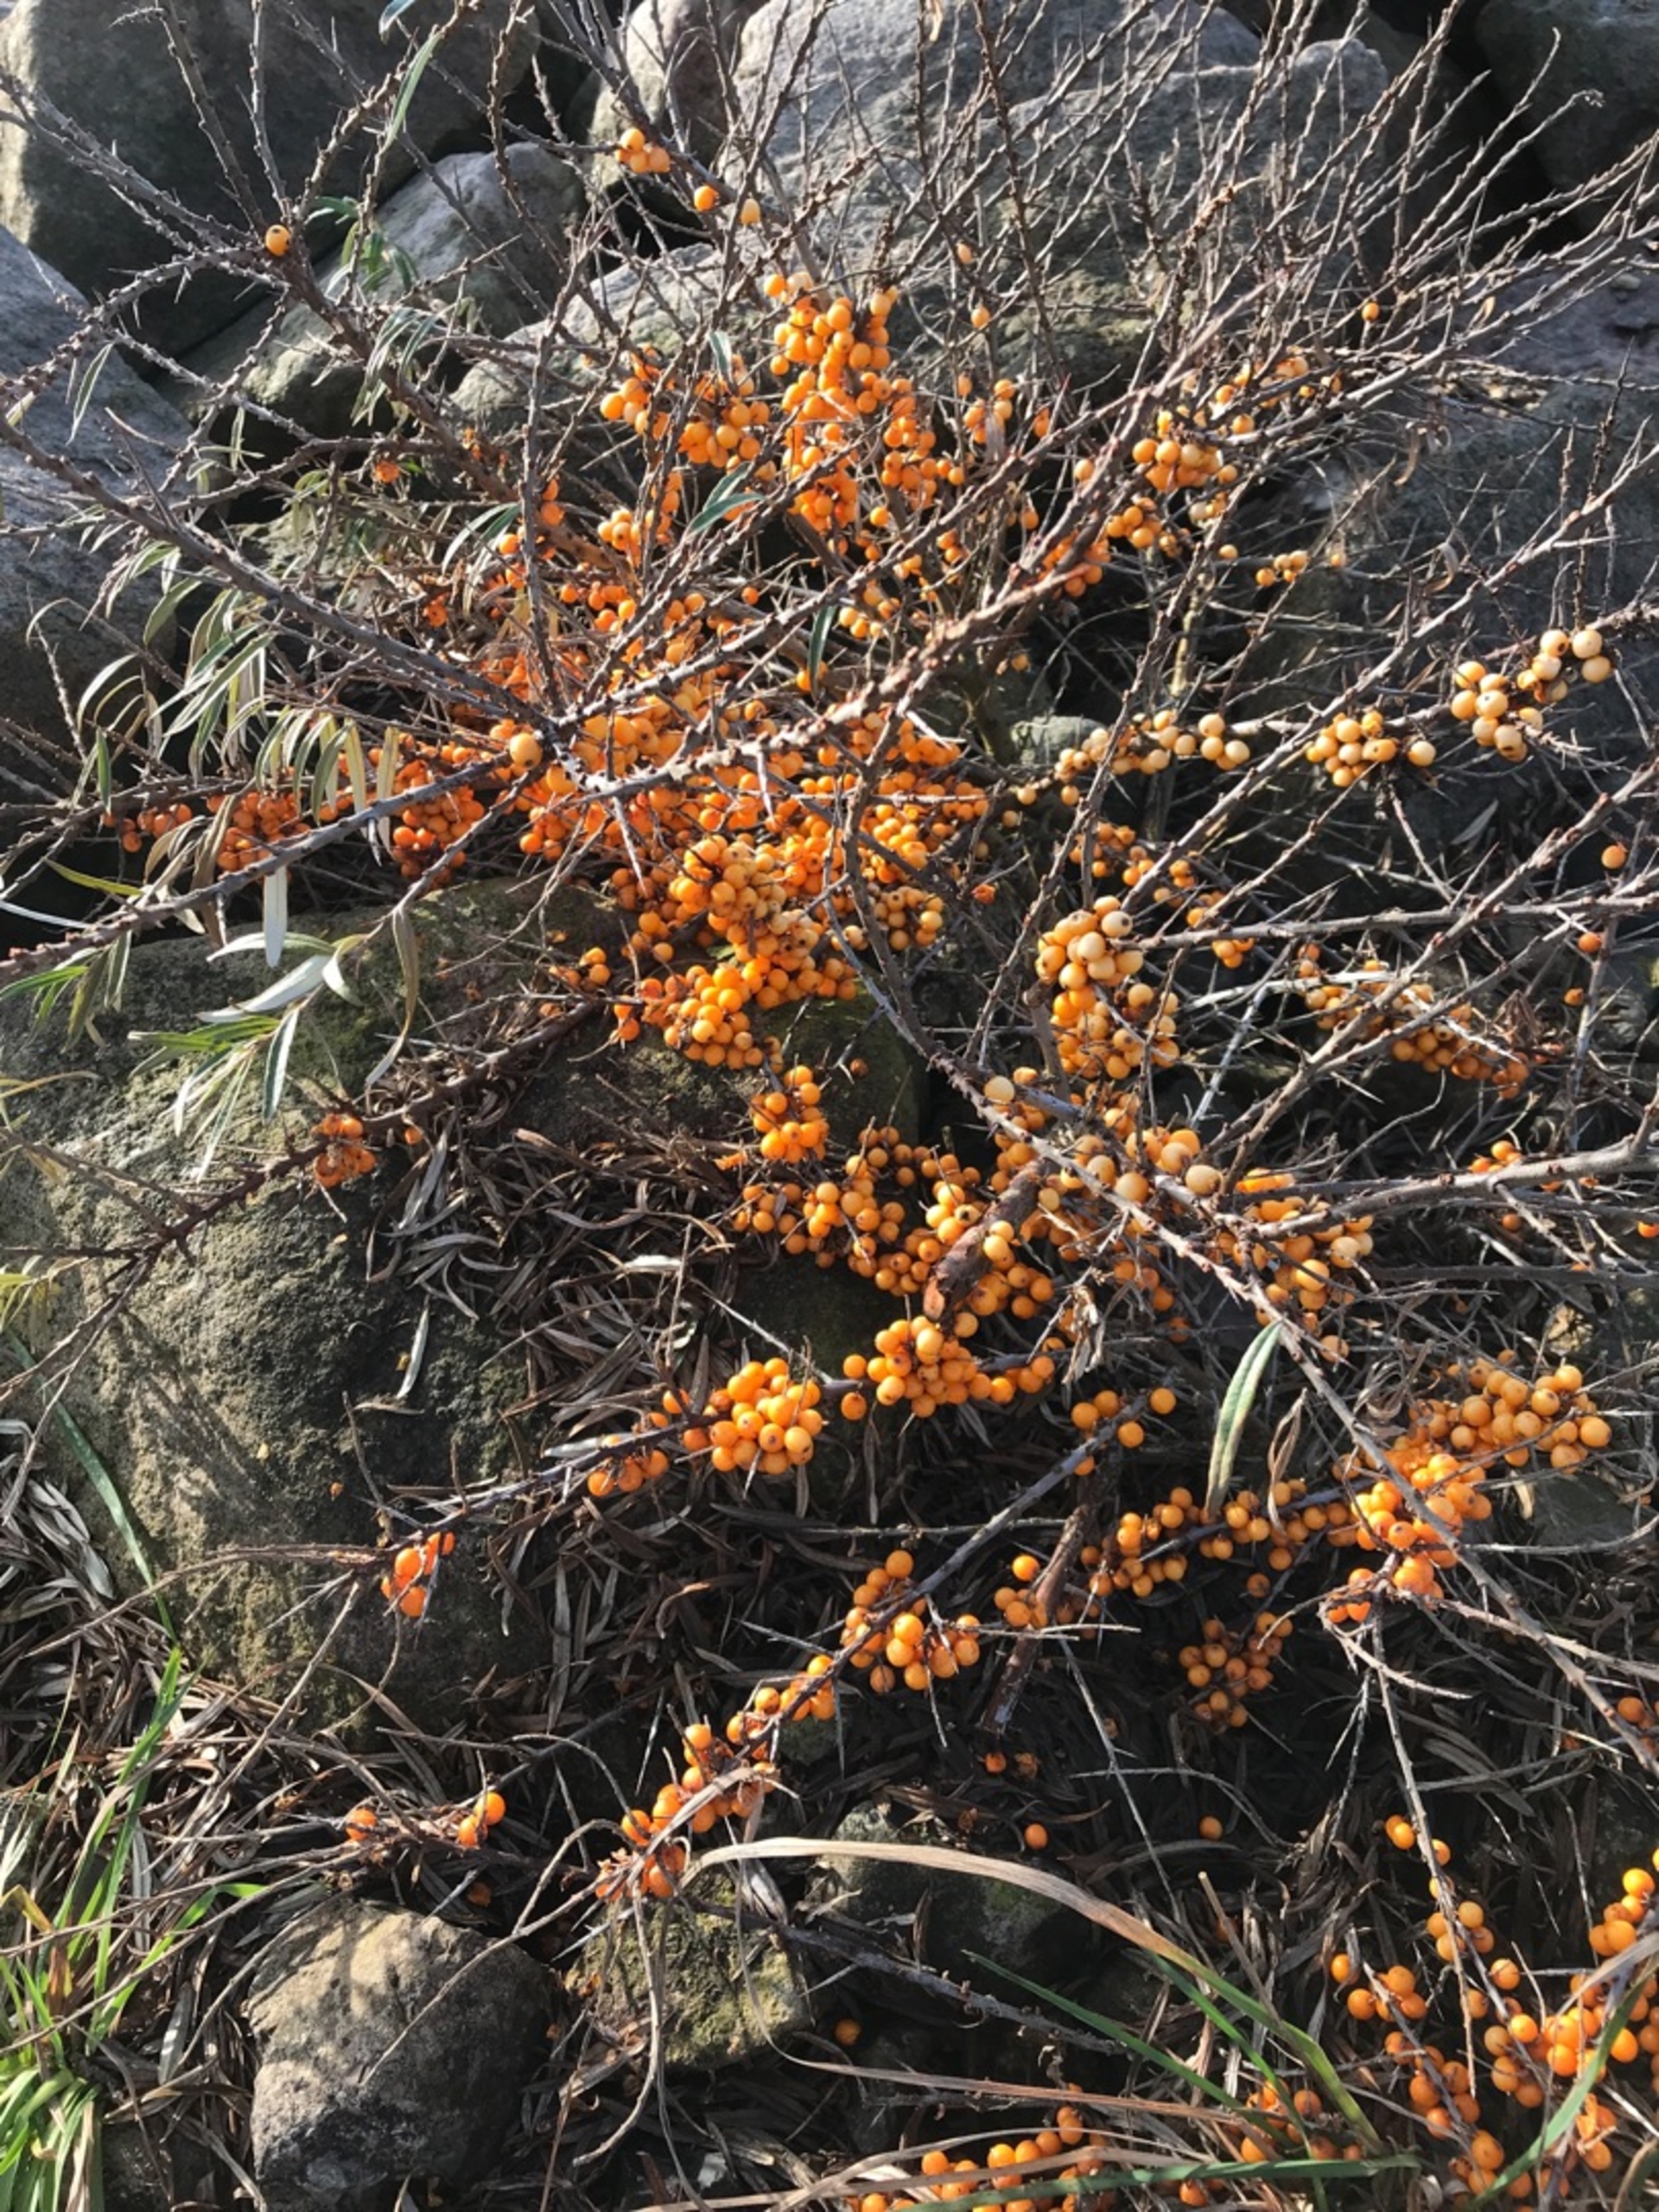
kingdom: Plantae
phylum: Tracheophyta
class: Magnoliopsida
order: Rosales
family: Elaeagnaceae
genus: Hippophae
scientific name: Hippophae rhamnoides
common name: Havtorn
